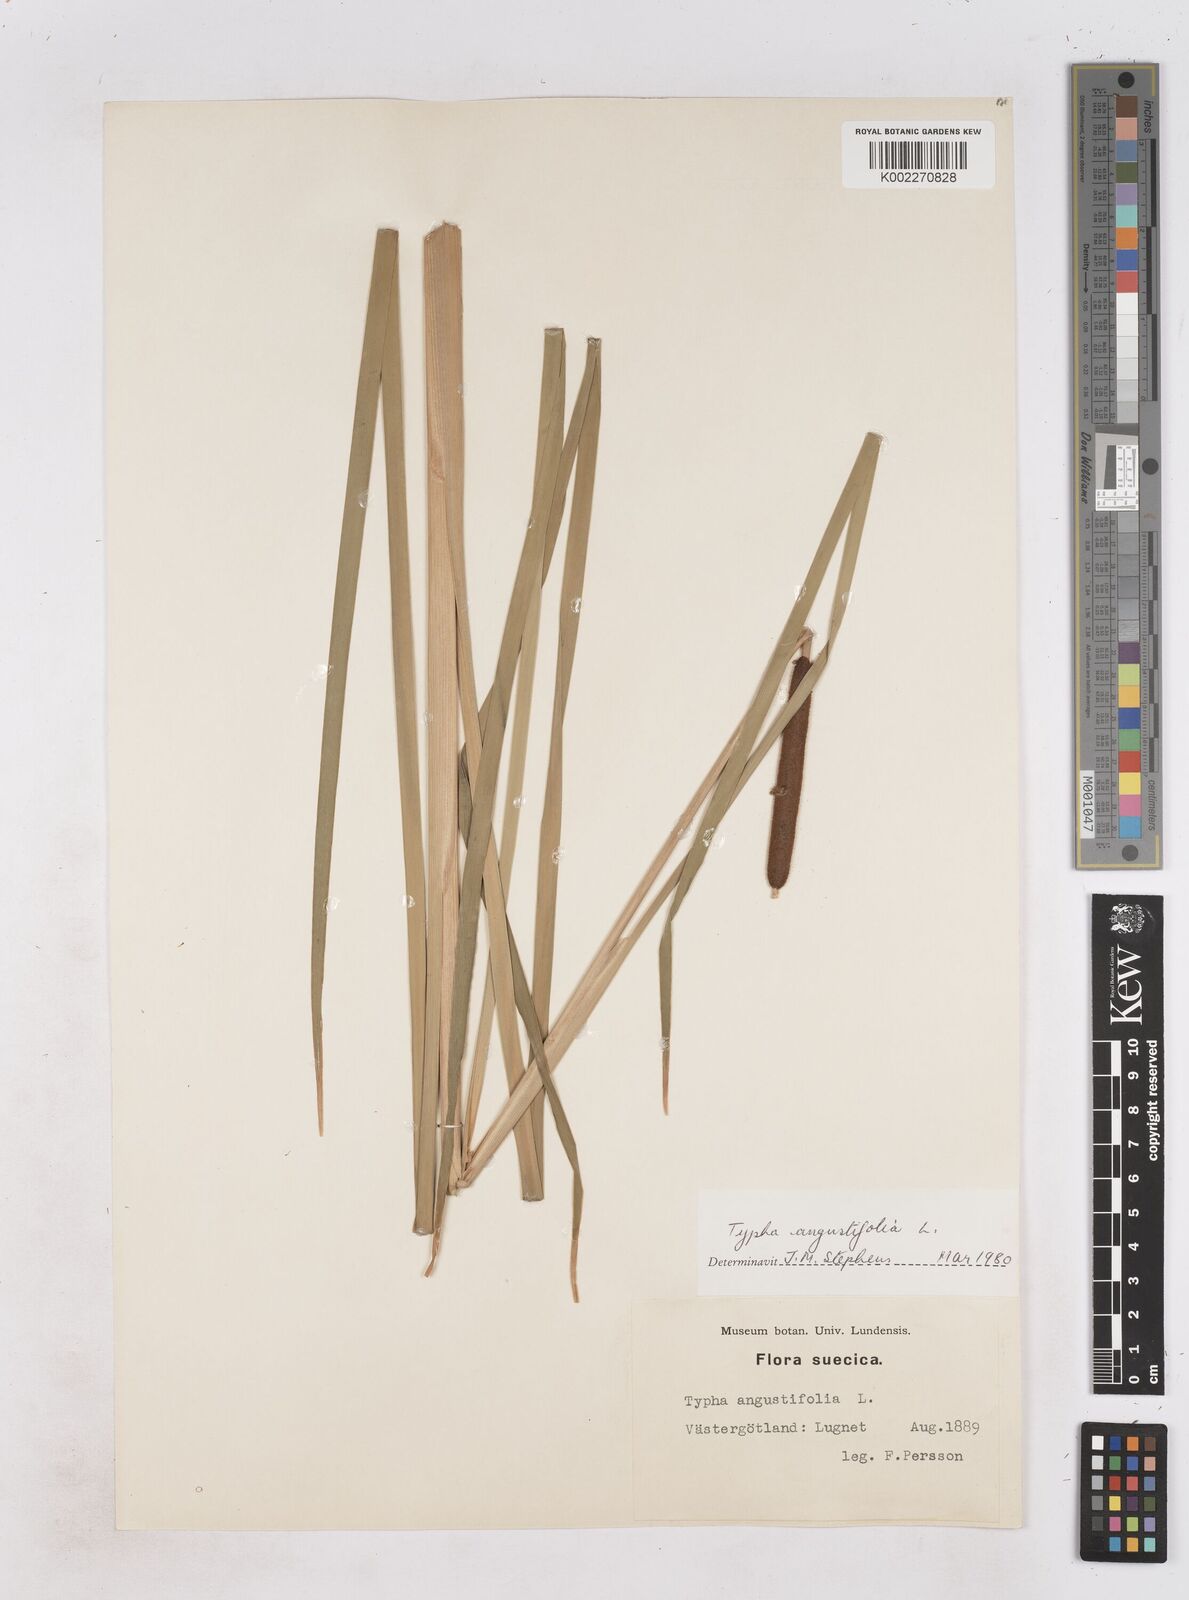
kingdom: Plantae
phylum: Tracheophyta
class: Liliopsida
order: Poales
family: Typhaceae
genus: Typha
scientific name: Typha angustifolia
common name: Lesser bulrush
